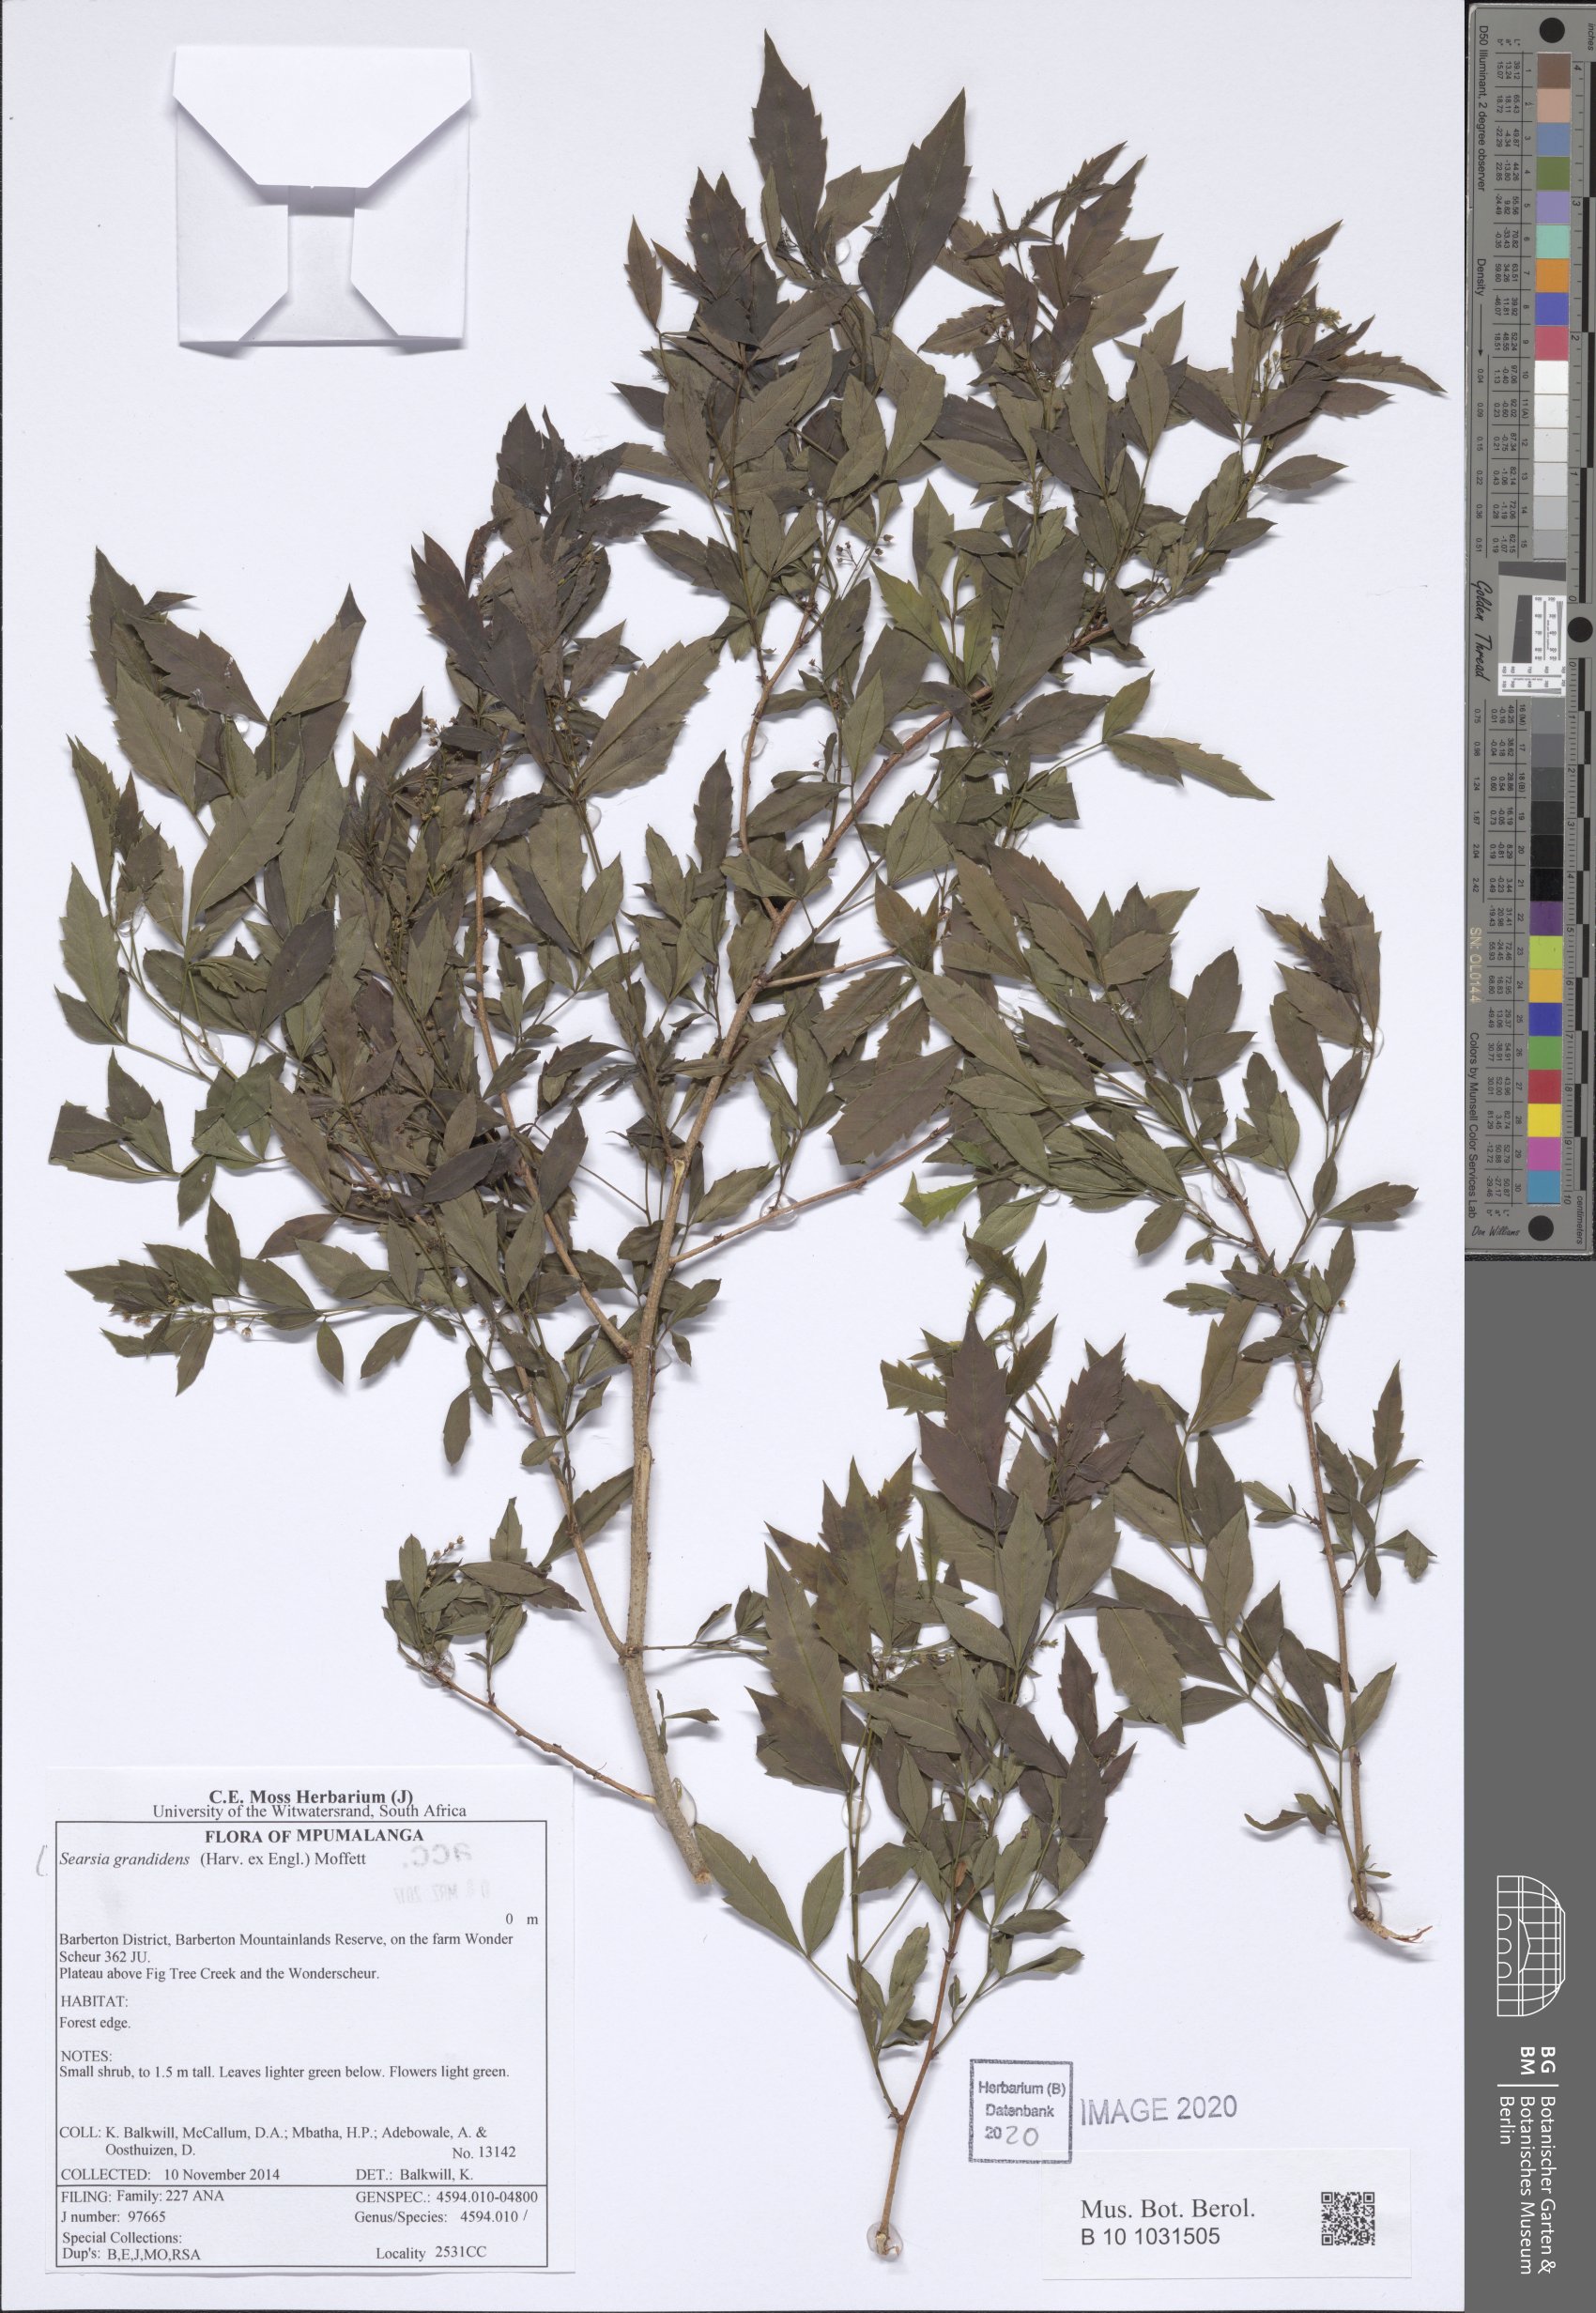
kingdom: Plantae
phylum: Tracheophyta
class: Magnoliopsida
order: Sapindales
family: Anacardiaceae
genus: Searsia
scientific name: Searsia grandidens
